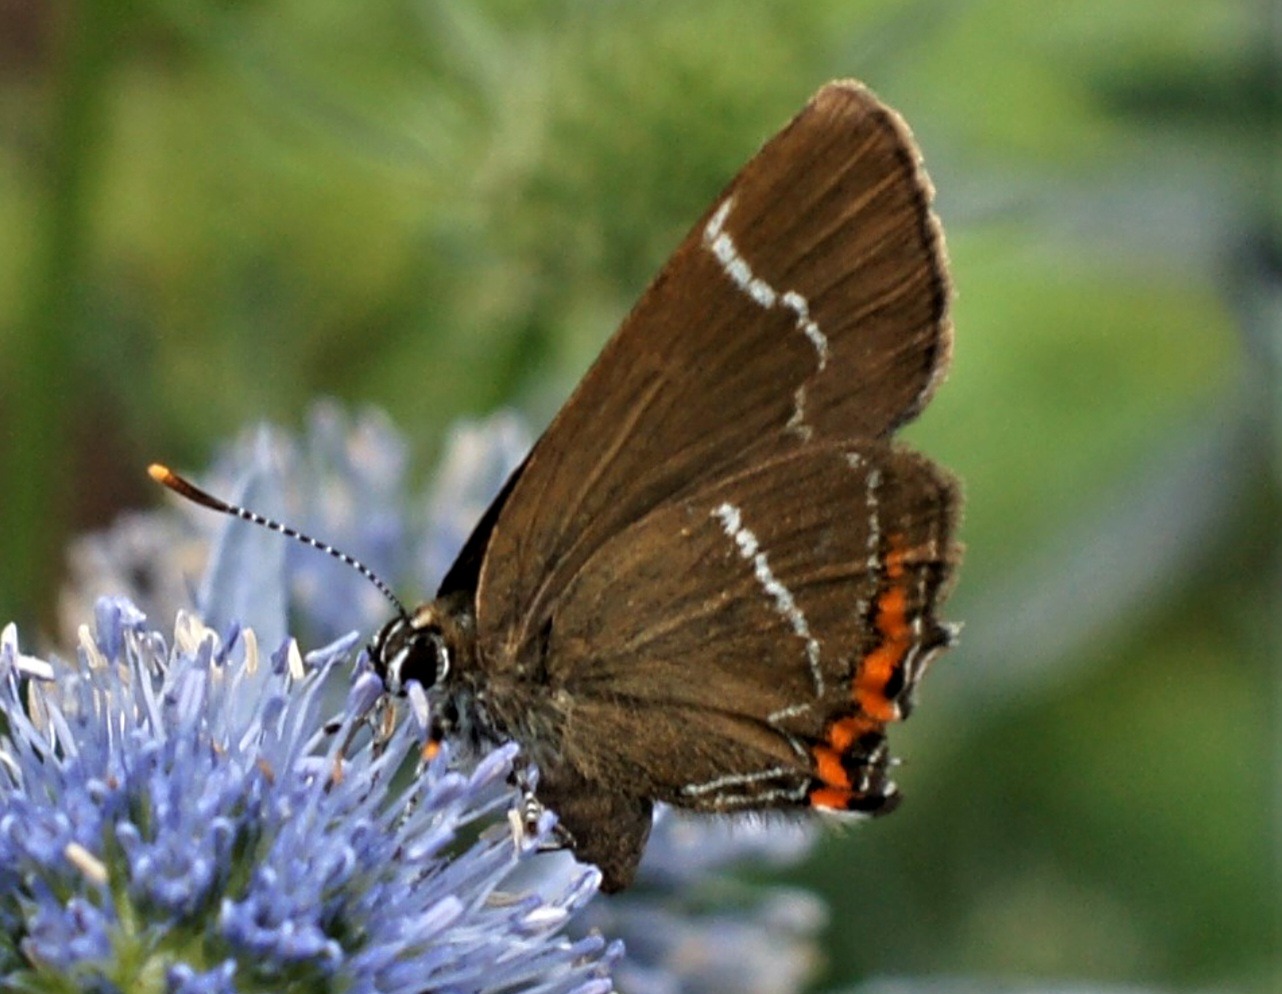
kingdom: Animalia
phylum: Arthropoda
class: Insecta
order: Lepidoptera
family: Lycaenidae
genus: Satyrium
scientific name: Satyrium w-album
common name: Det hvide W
